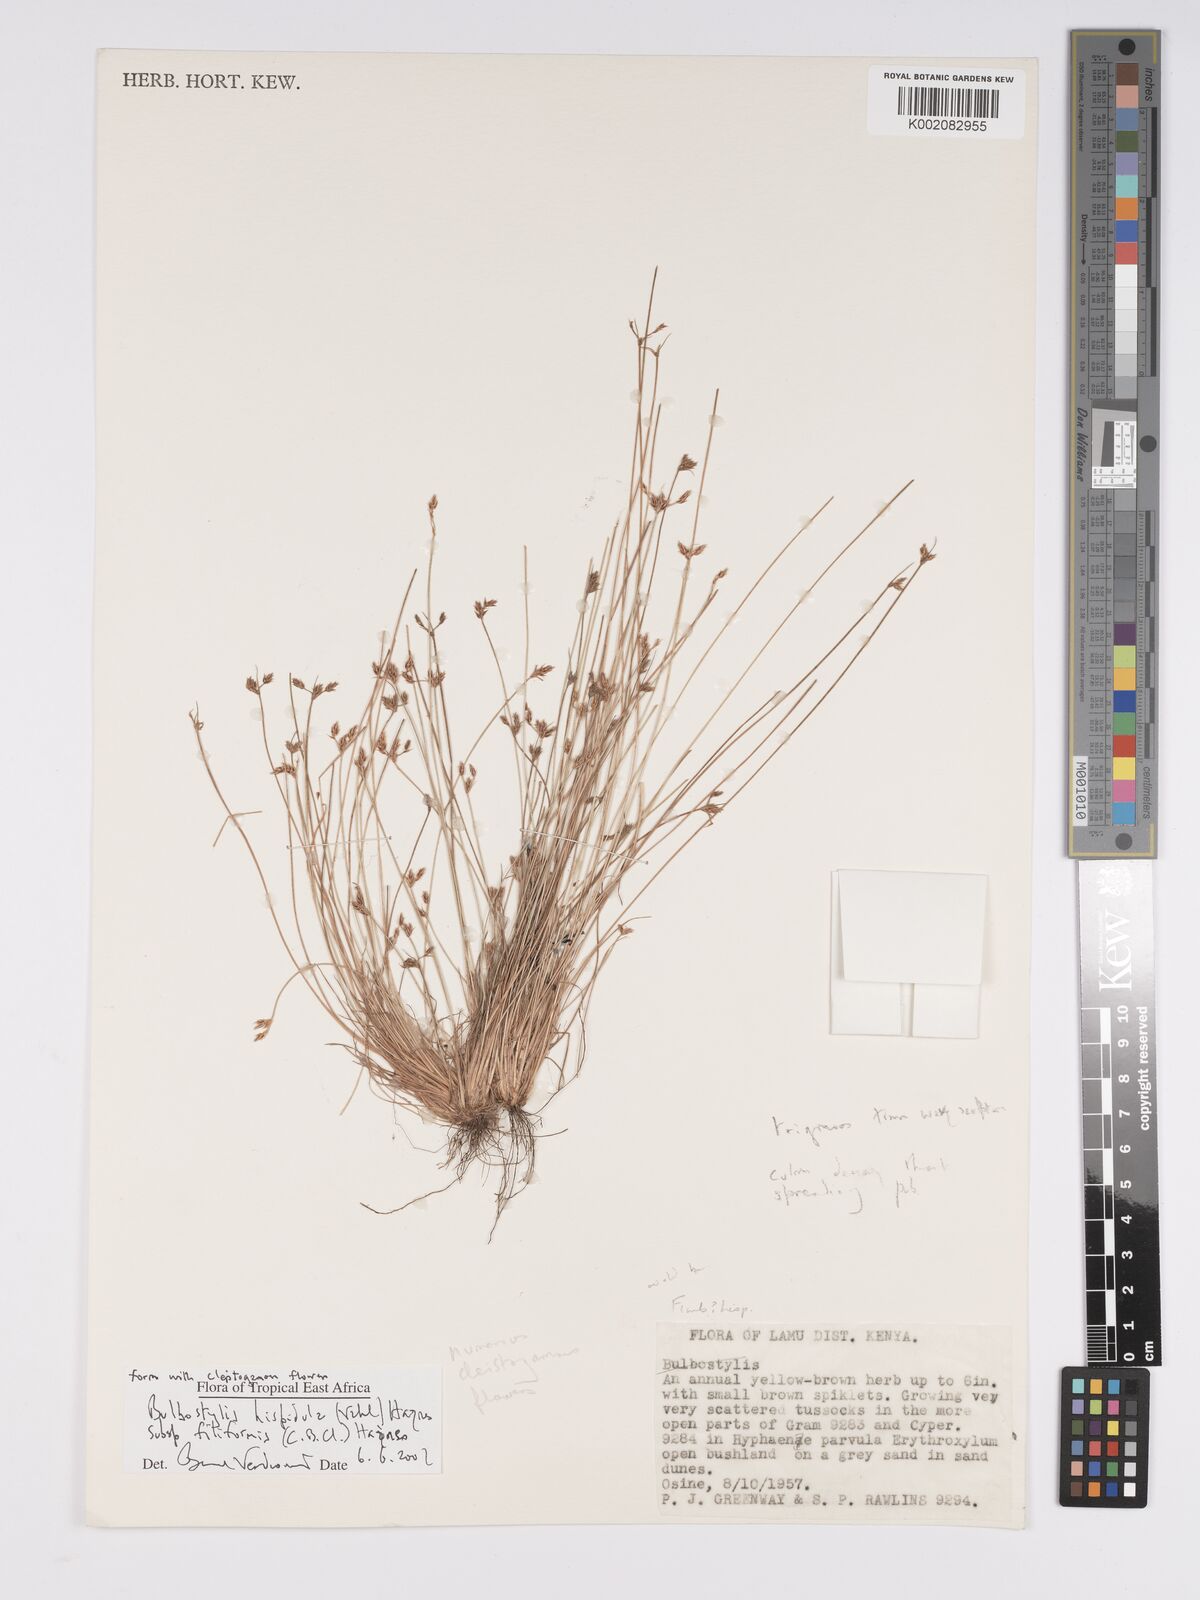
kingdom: Plantae
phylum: Tracheophyta
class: Liliopsida
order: Poales
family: Cyperaceae
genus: Bulbostylis
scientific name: Bulbostylis hispidula
